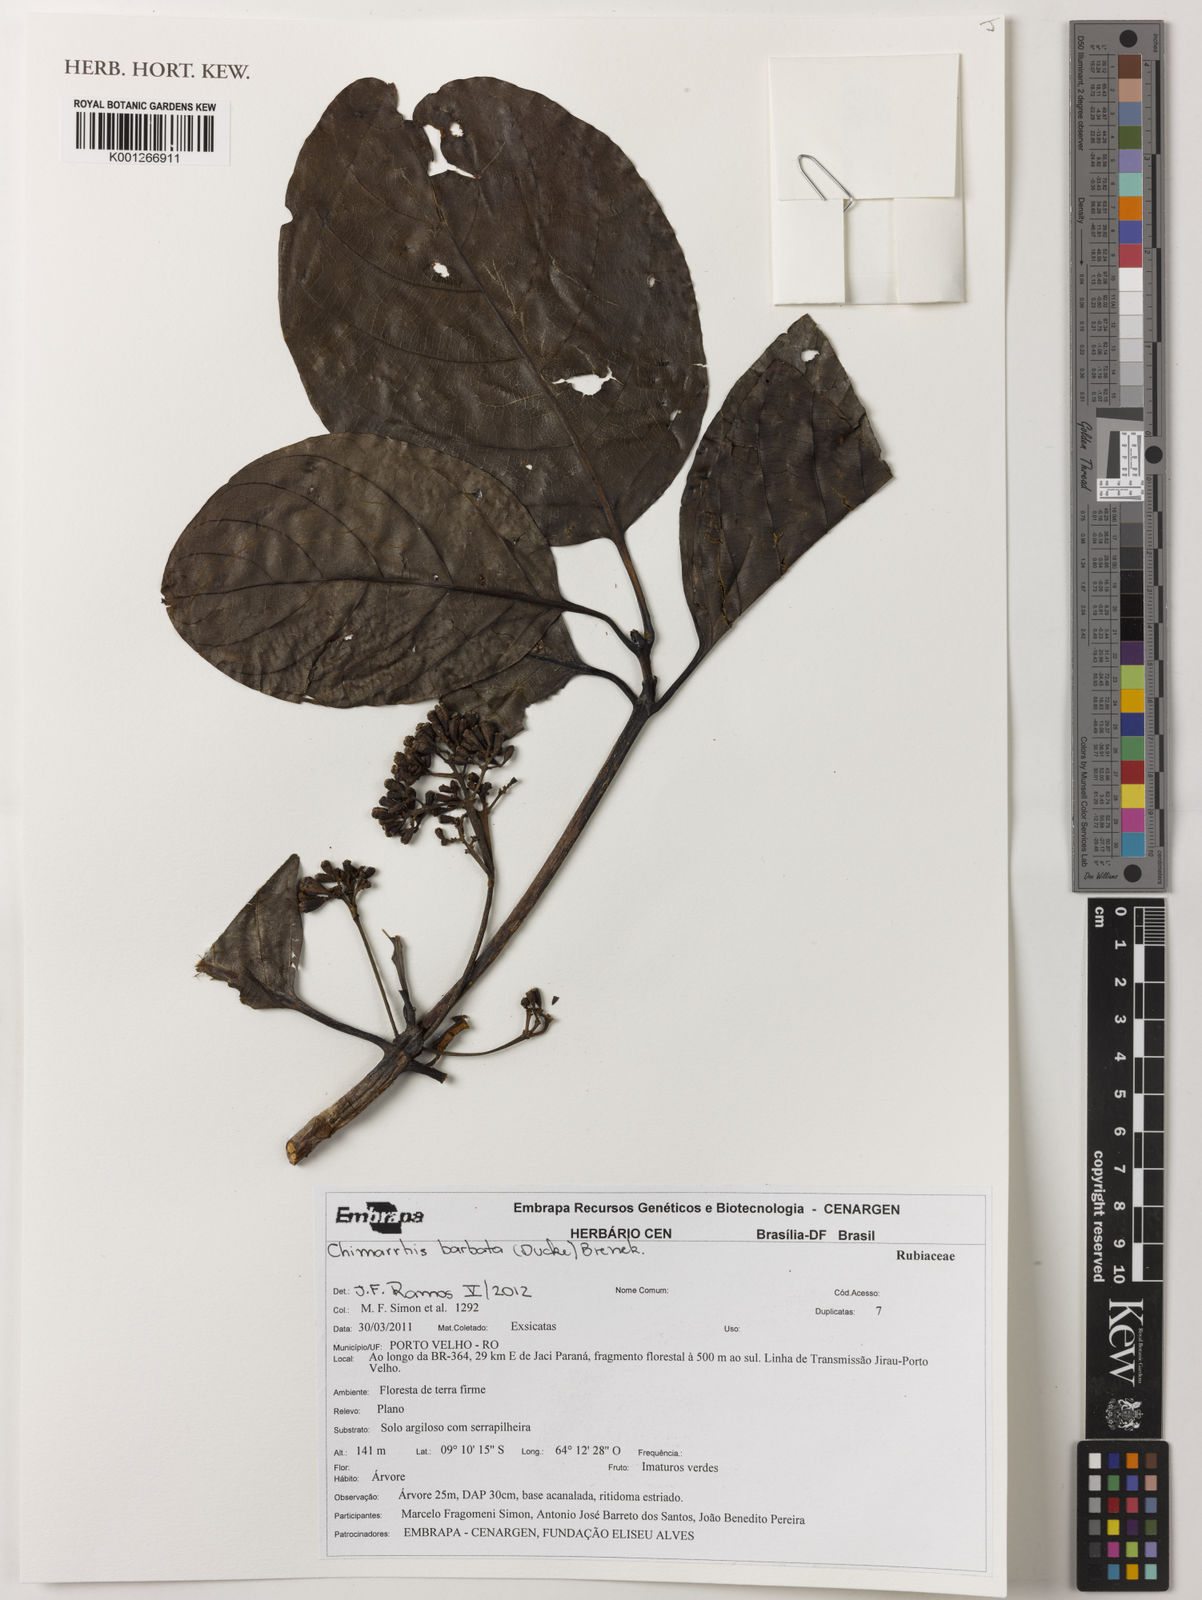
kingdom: Plantae
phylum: Tracheophyta
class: Magnoliopsida
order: Gentianales
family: Rubiaceae
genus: Chimarrhis
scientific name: Chimarrhis barbata
